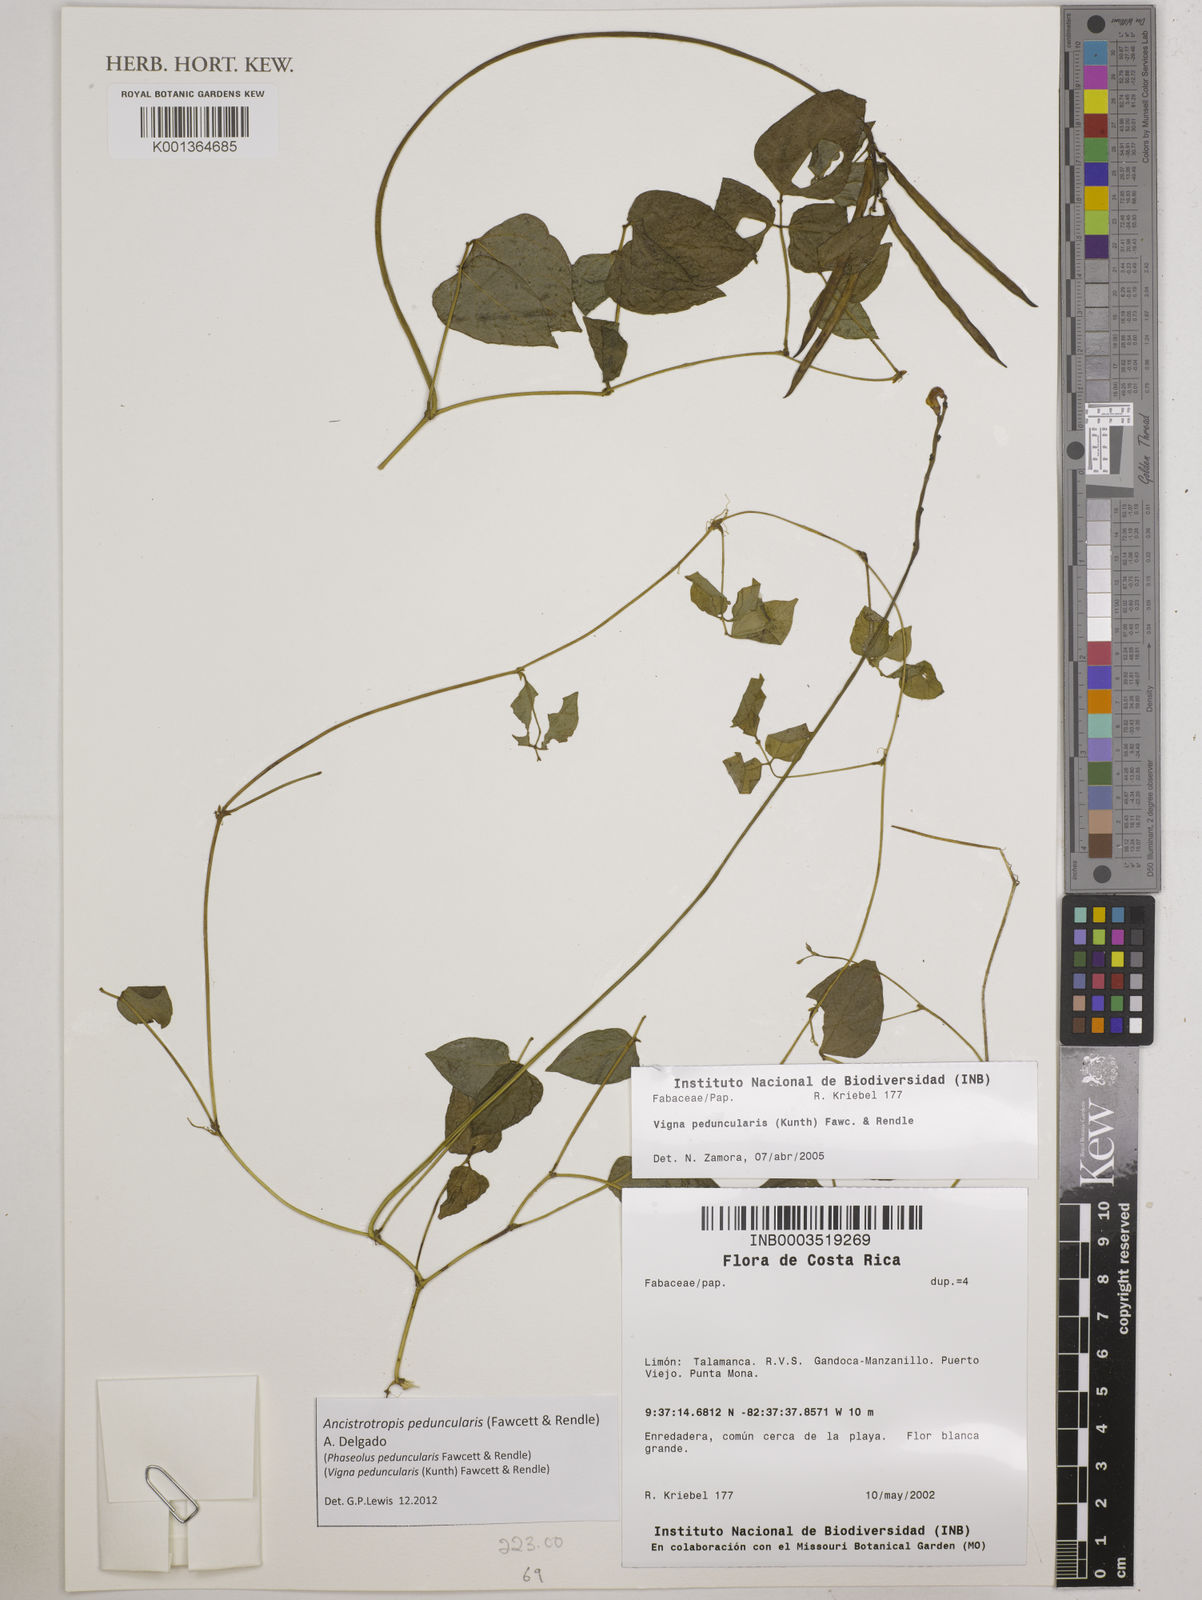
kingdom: Plantae
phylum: Tracheophyta
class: Magnoliopsida
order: Fabales
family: Fabaceae
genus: Ancistrotropis
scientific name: Ancistrotropis peduncularis
